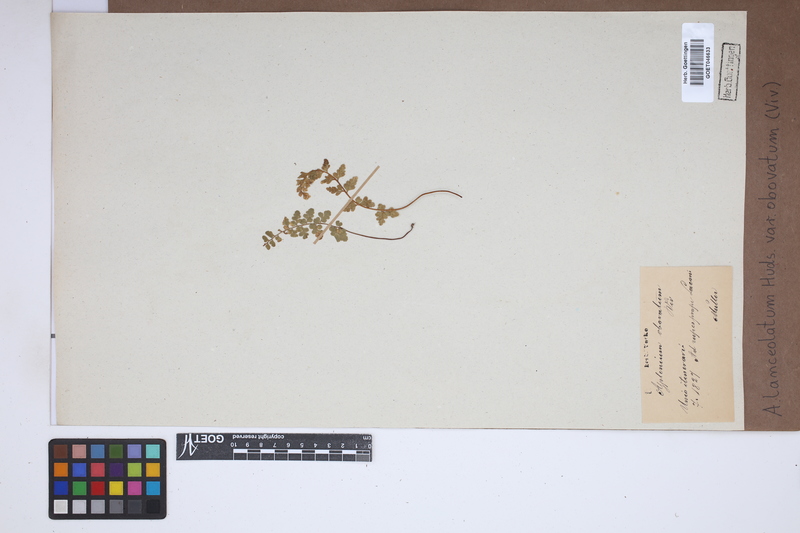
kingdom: Plantae
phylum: Tracheophyta
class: Polypodiopsida
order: Polypodiales
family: Aspleniaceae
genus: Asplenium
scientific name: Asplenium obovatum
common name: Lanceolate spleenwort
